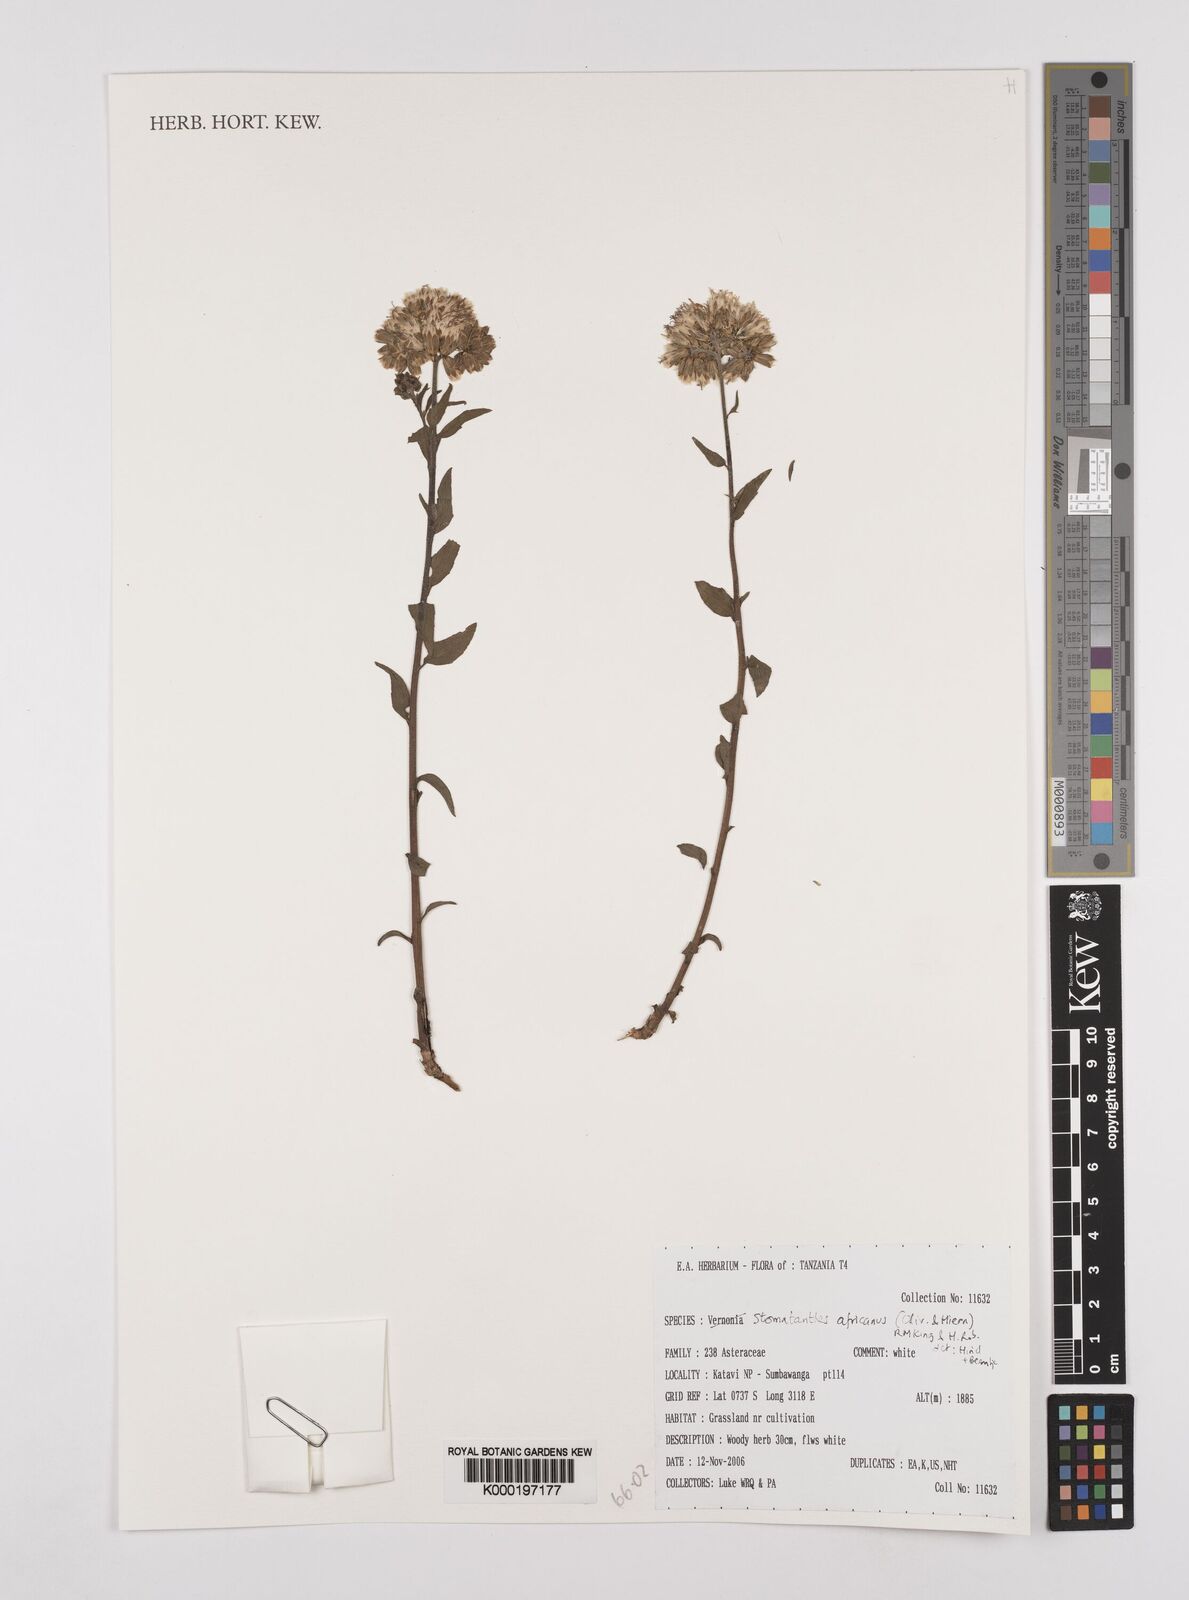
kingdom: Plantae
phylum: Tracheophyta
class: Magnoliopsida
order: Asterales
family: Asteraceae
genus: Stomatanthes
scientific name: Stomatanthes africanus
